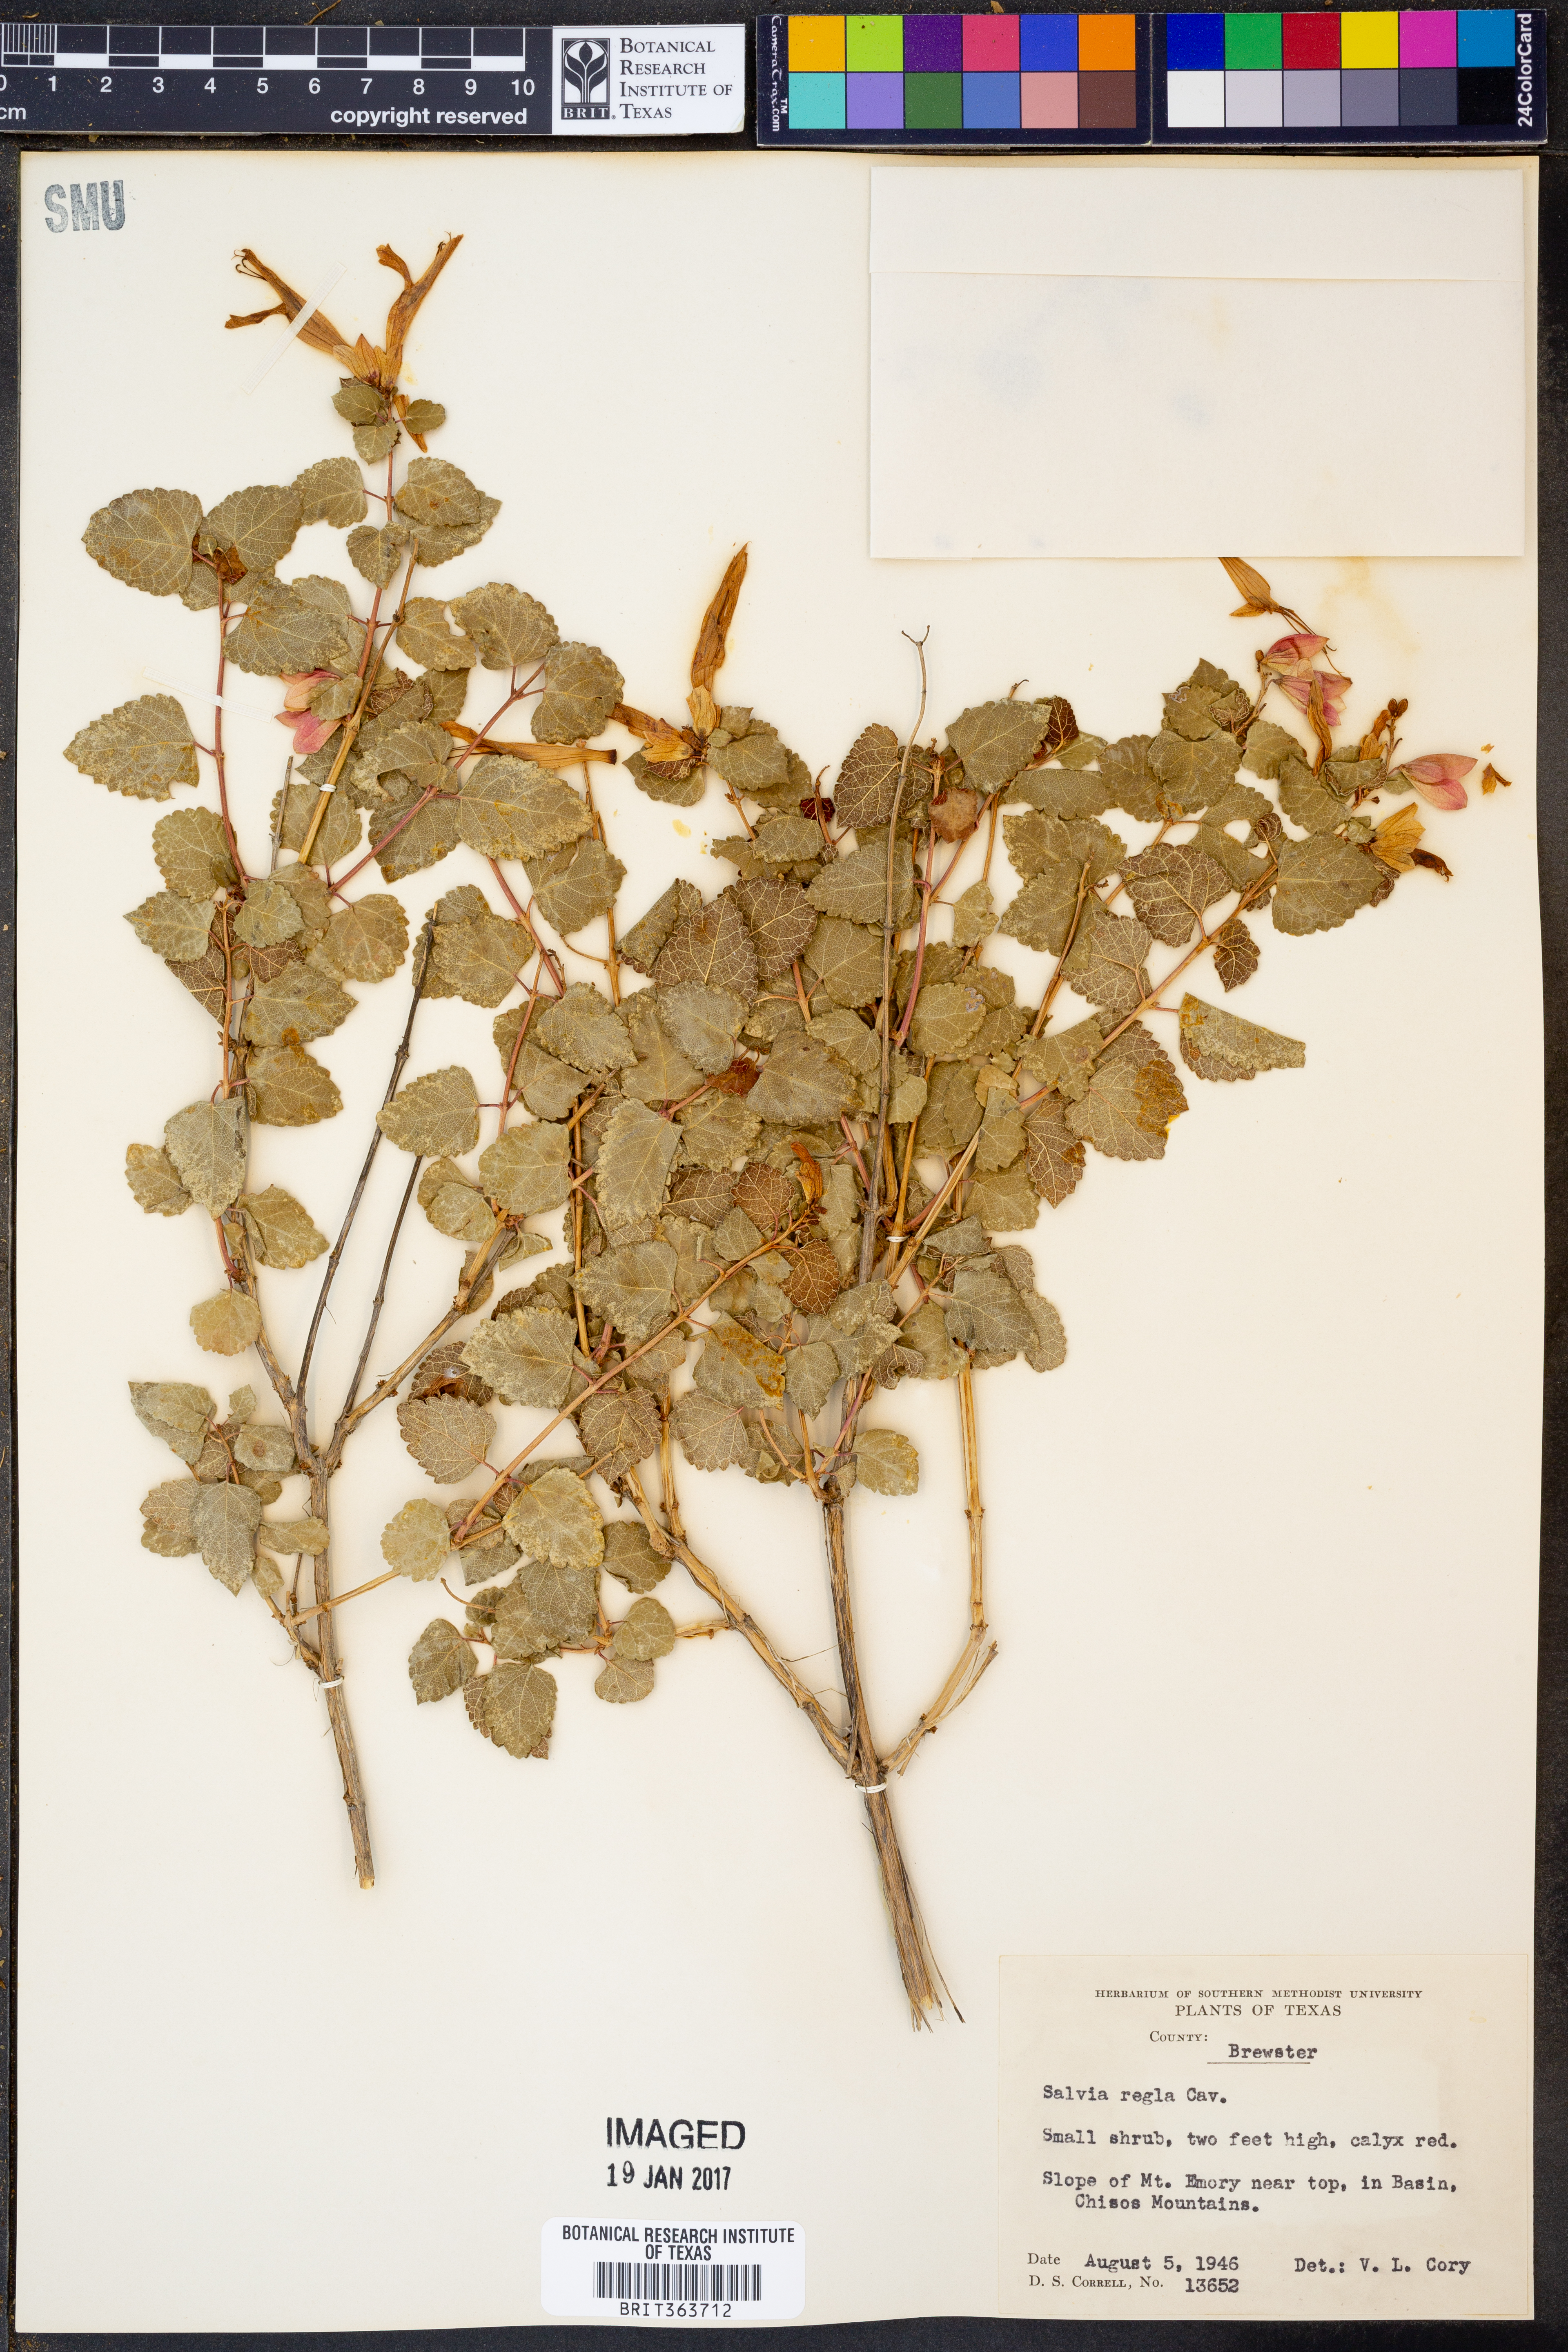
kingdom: Plantae
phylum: Tracheophyta
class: Magnoliopsida
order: Lamiales
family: Lamiaceae
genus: Salvia
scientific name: Salvia regla
